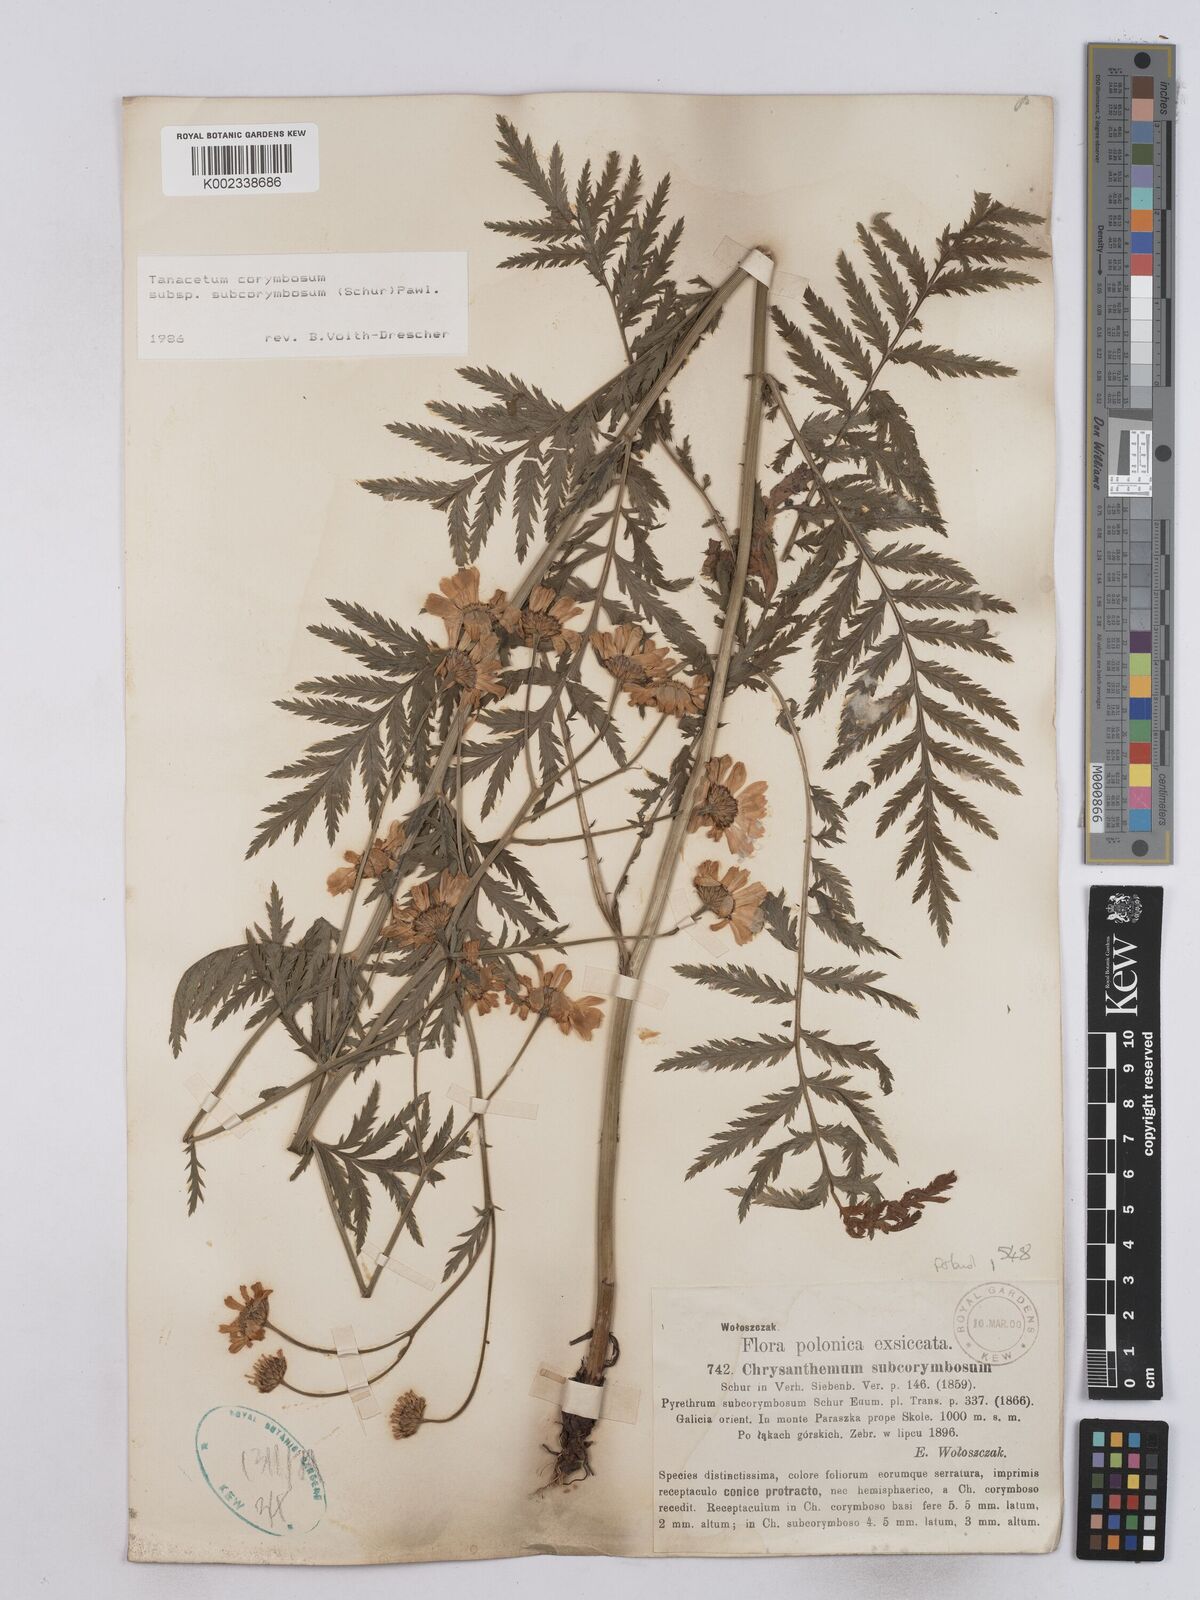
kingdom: Plantae
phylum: Tracheophyta
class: Magnoliopsida
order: Asterales
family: Asteraceae
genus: Tanacetum
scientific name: Tanacetum corymbosum
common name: Scentless feverfew
